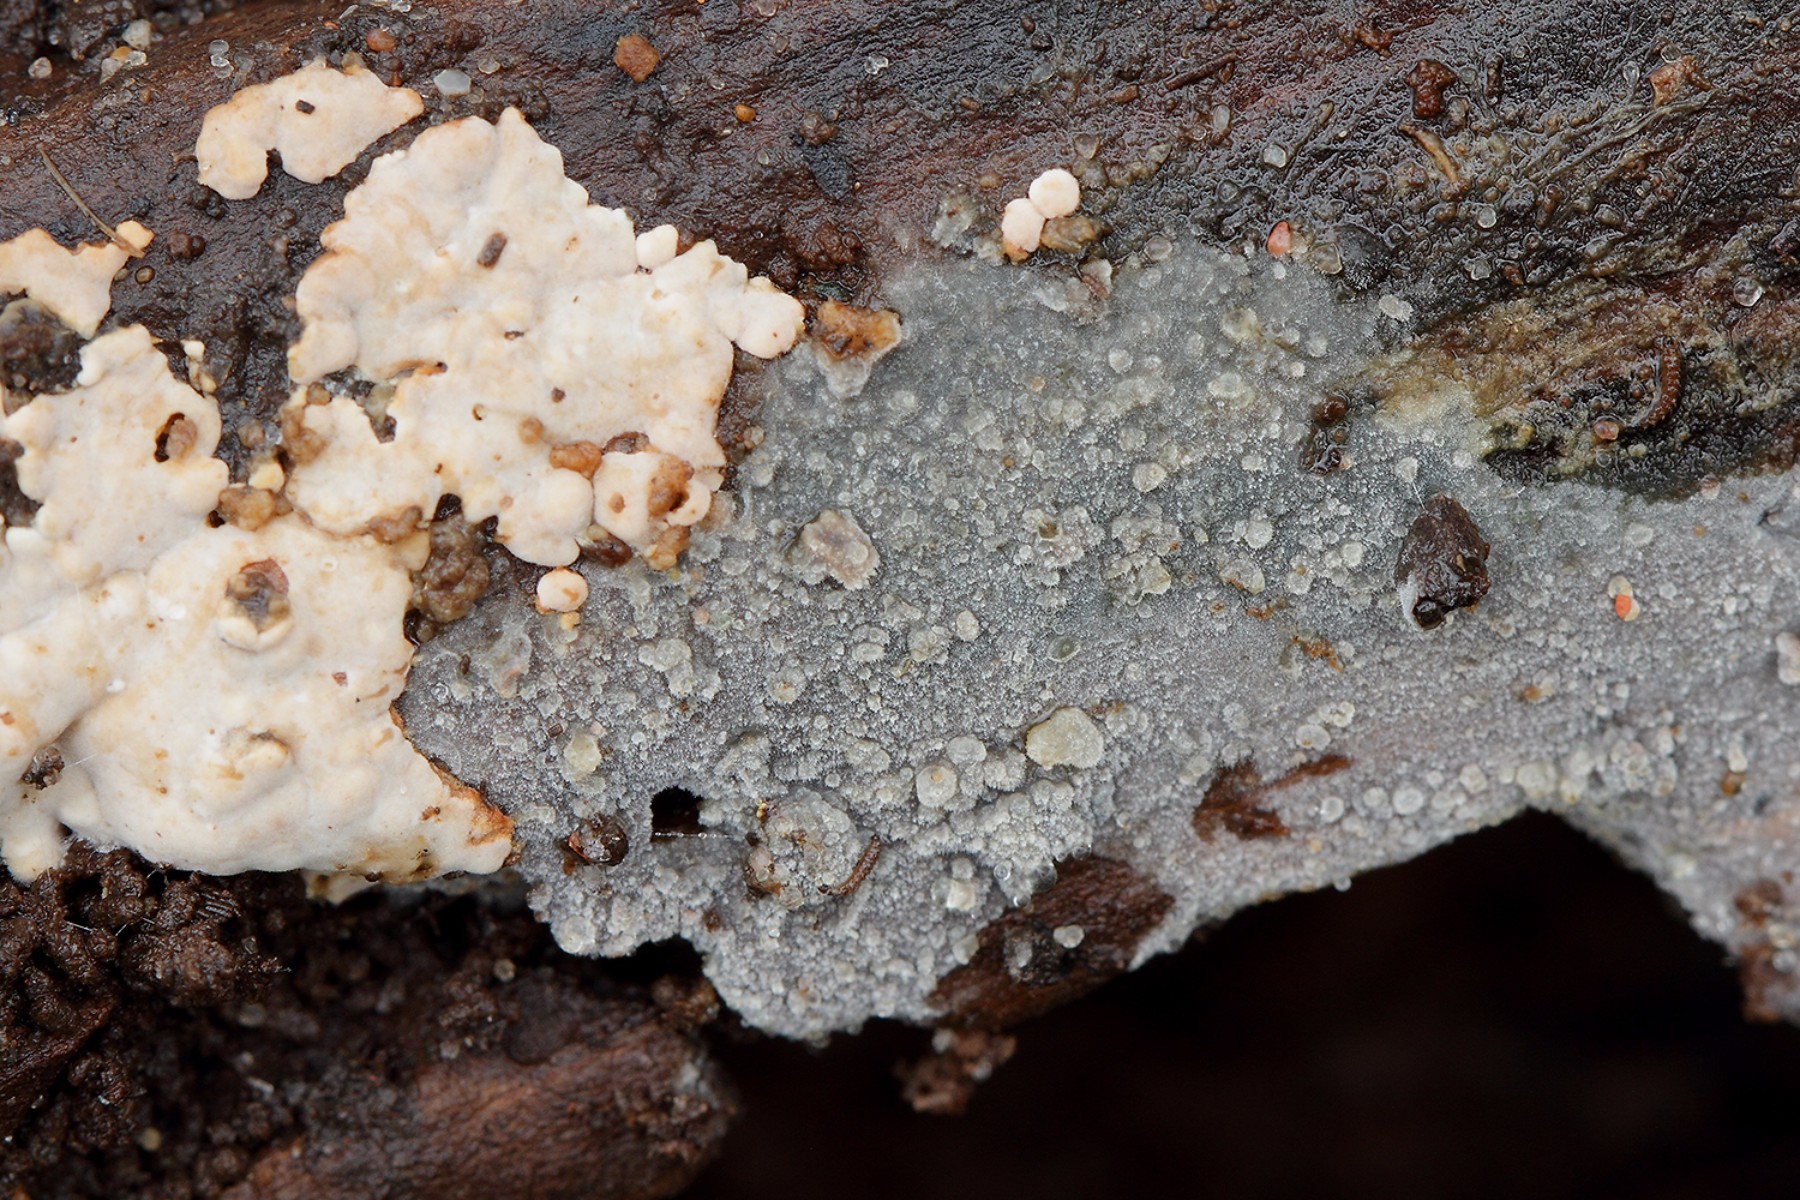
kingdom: Fungi
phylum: Basidiomycota
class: Agaricomycetes
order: Polyporales
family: Meruliaceae
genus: Scopuloides
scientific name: Scopuloides rimosa
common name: dughinde
